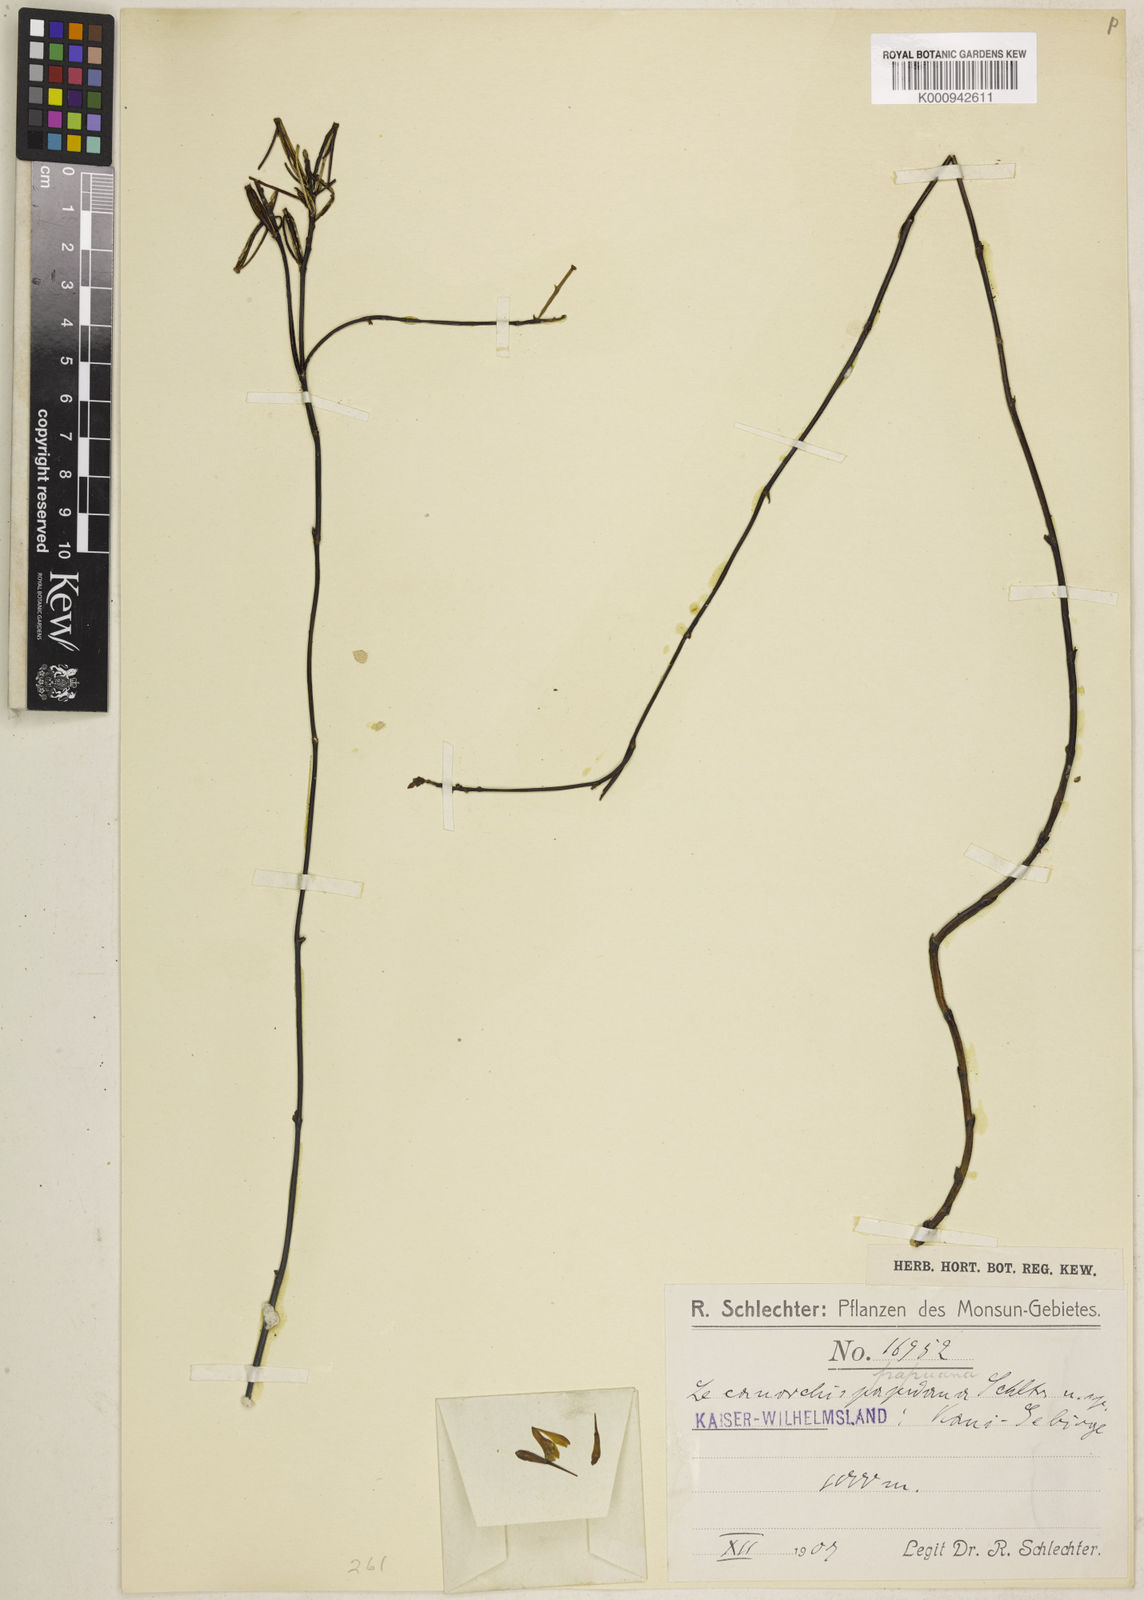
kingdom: Plantae
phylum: Tracheophyta
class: Liliopsida
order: Asparagales
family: Orchidaceae
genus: Lecanorchis
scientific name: Lecanorchis triloba
